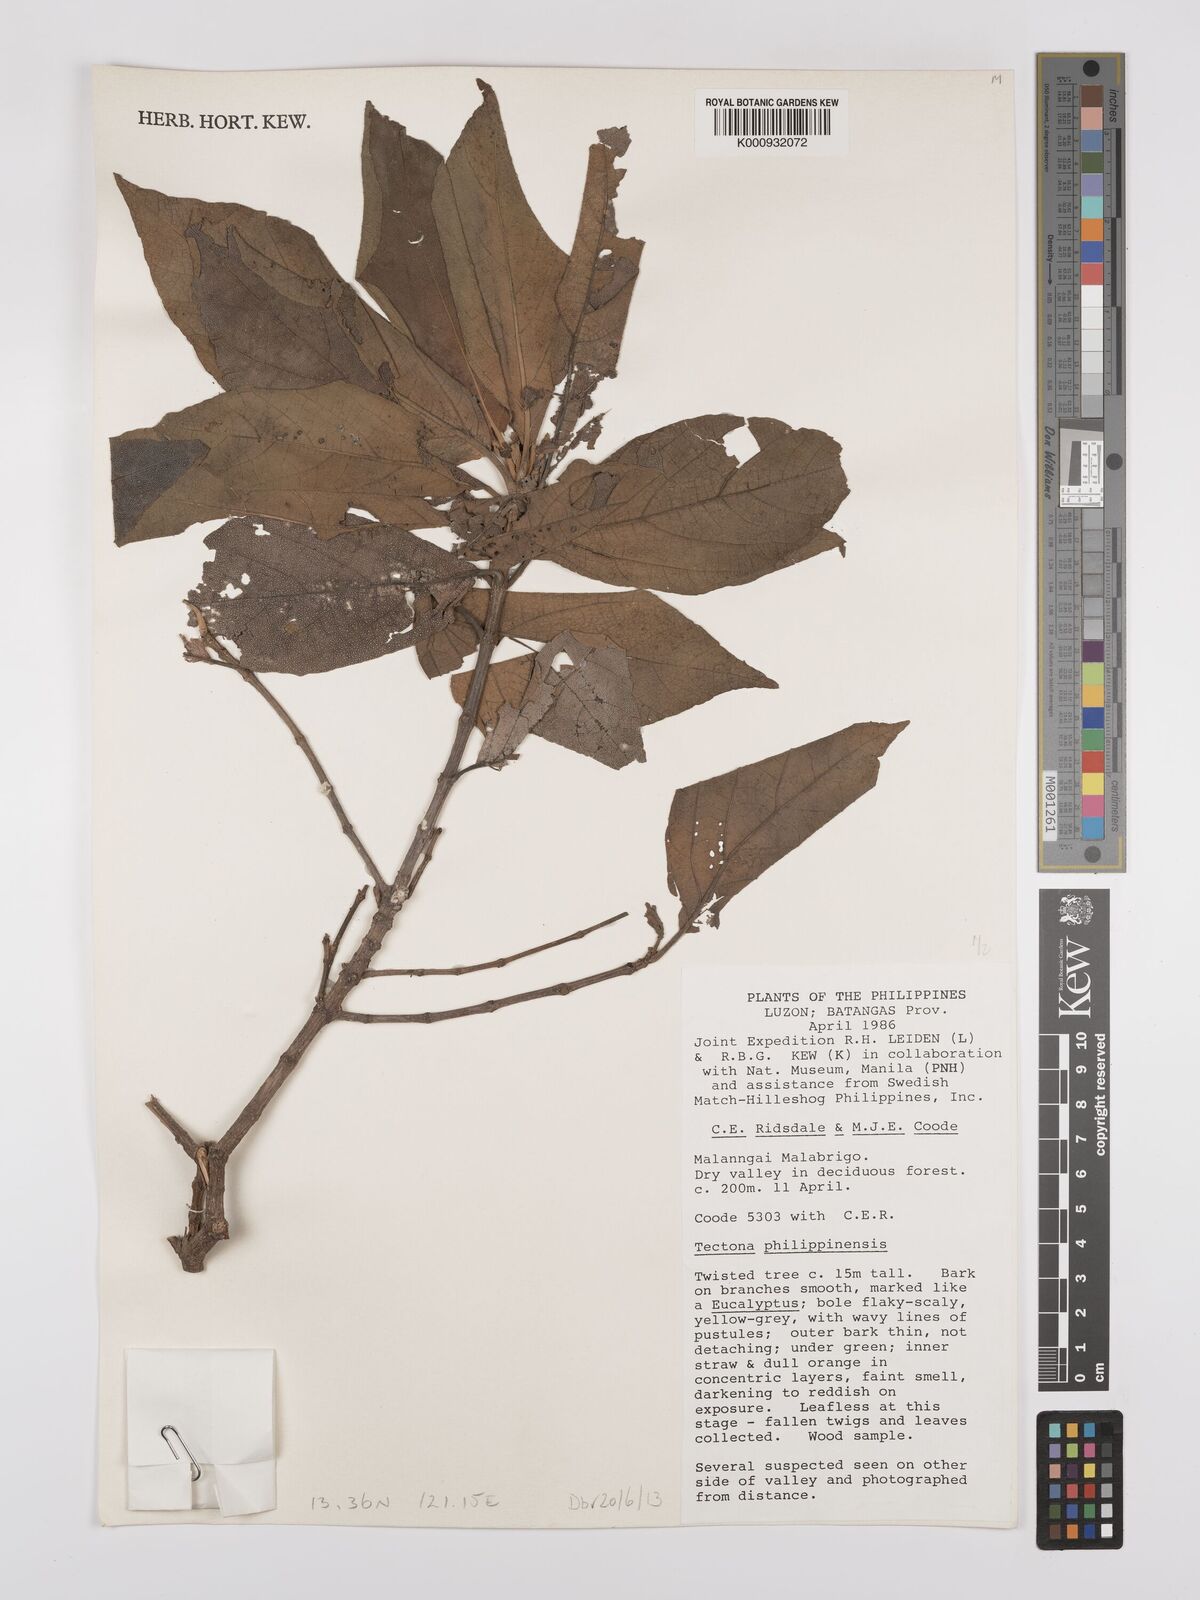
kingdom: Plantae
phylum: Tracheophyta
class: Magnoliopsida
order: Lamiales
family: Lamiaceae
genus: Tectona
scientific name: Tectona
